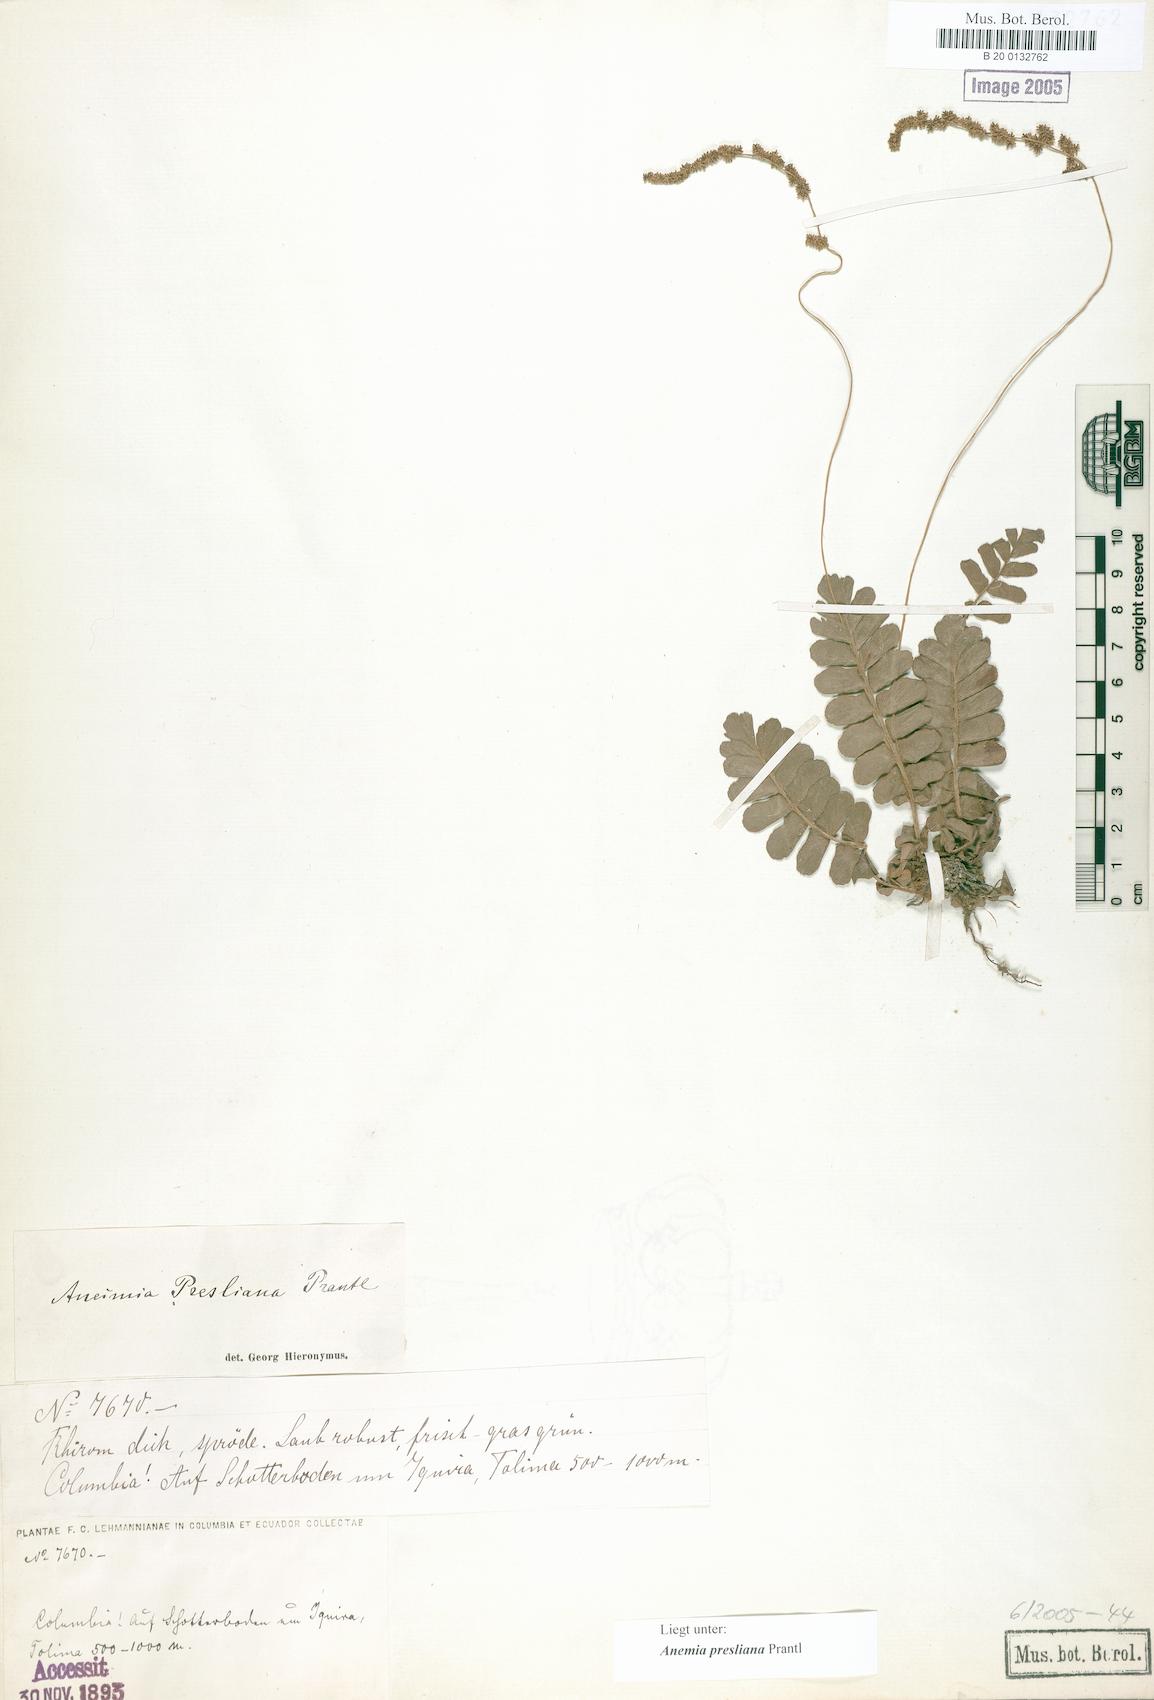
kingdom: Plantae
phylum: Tracheophyta
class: Polypodiopsida
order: Schizaeales
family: Anemiaceae
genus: Anemia
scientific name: Anemia presliana
